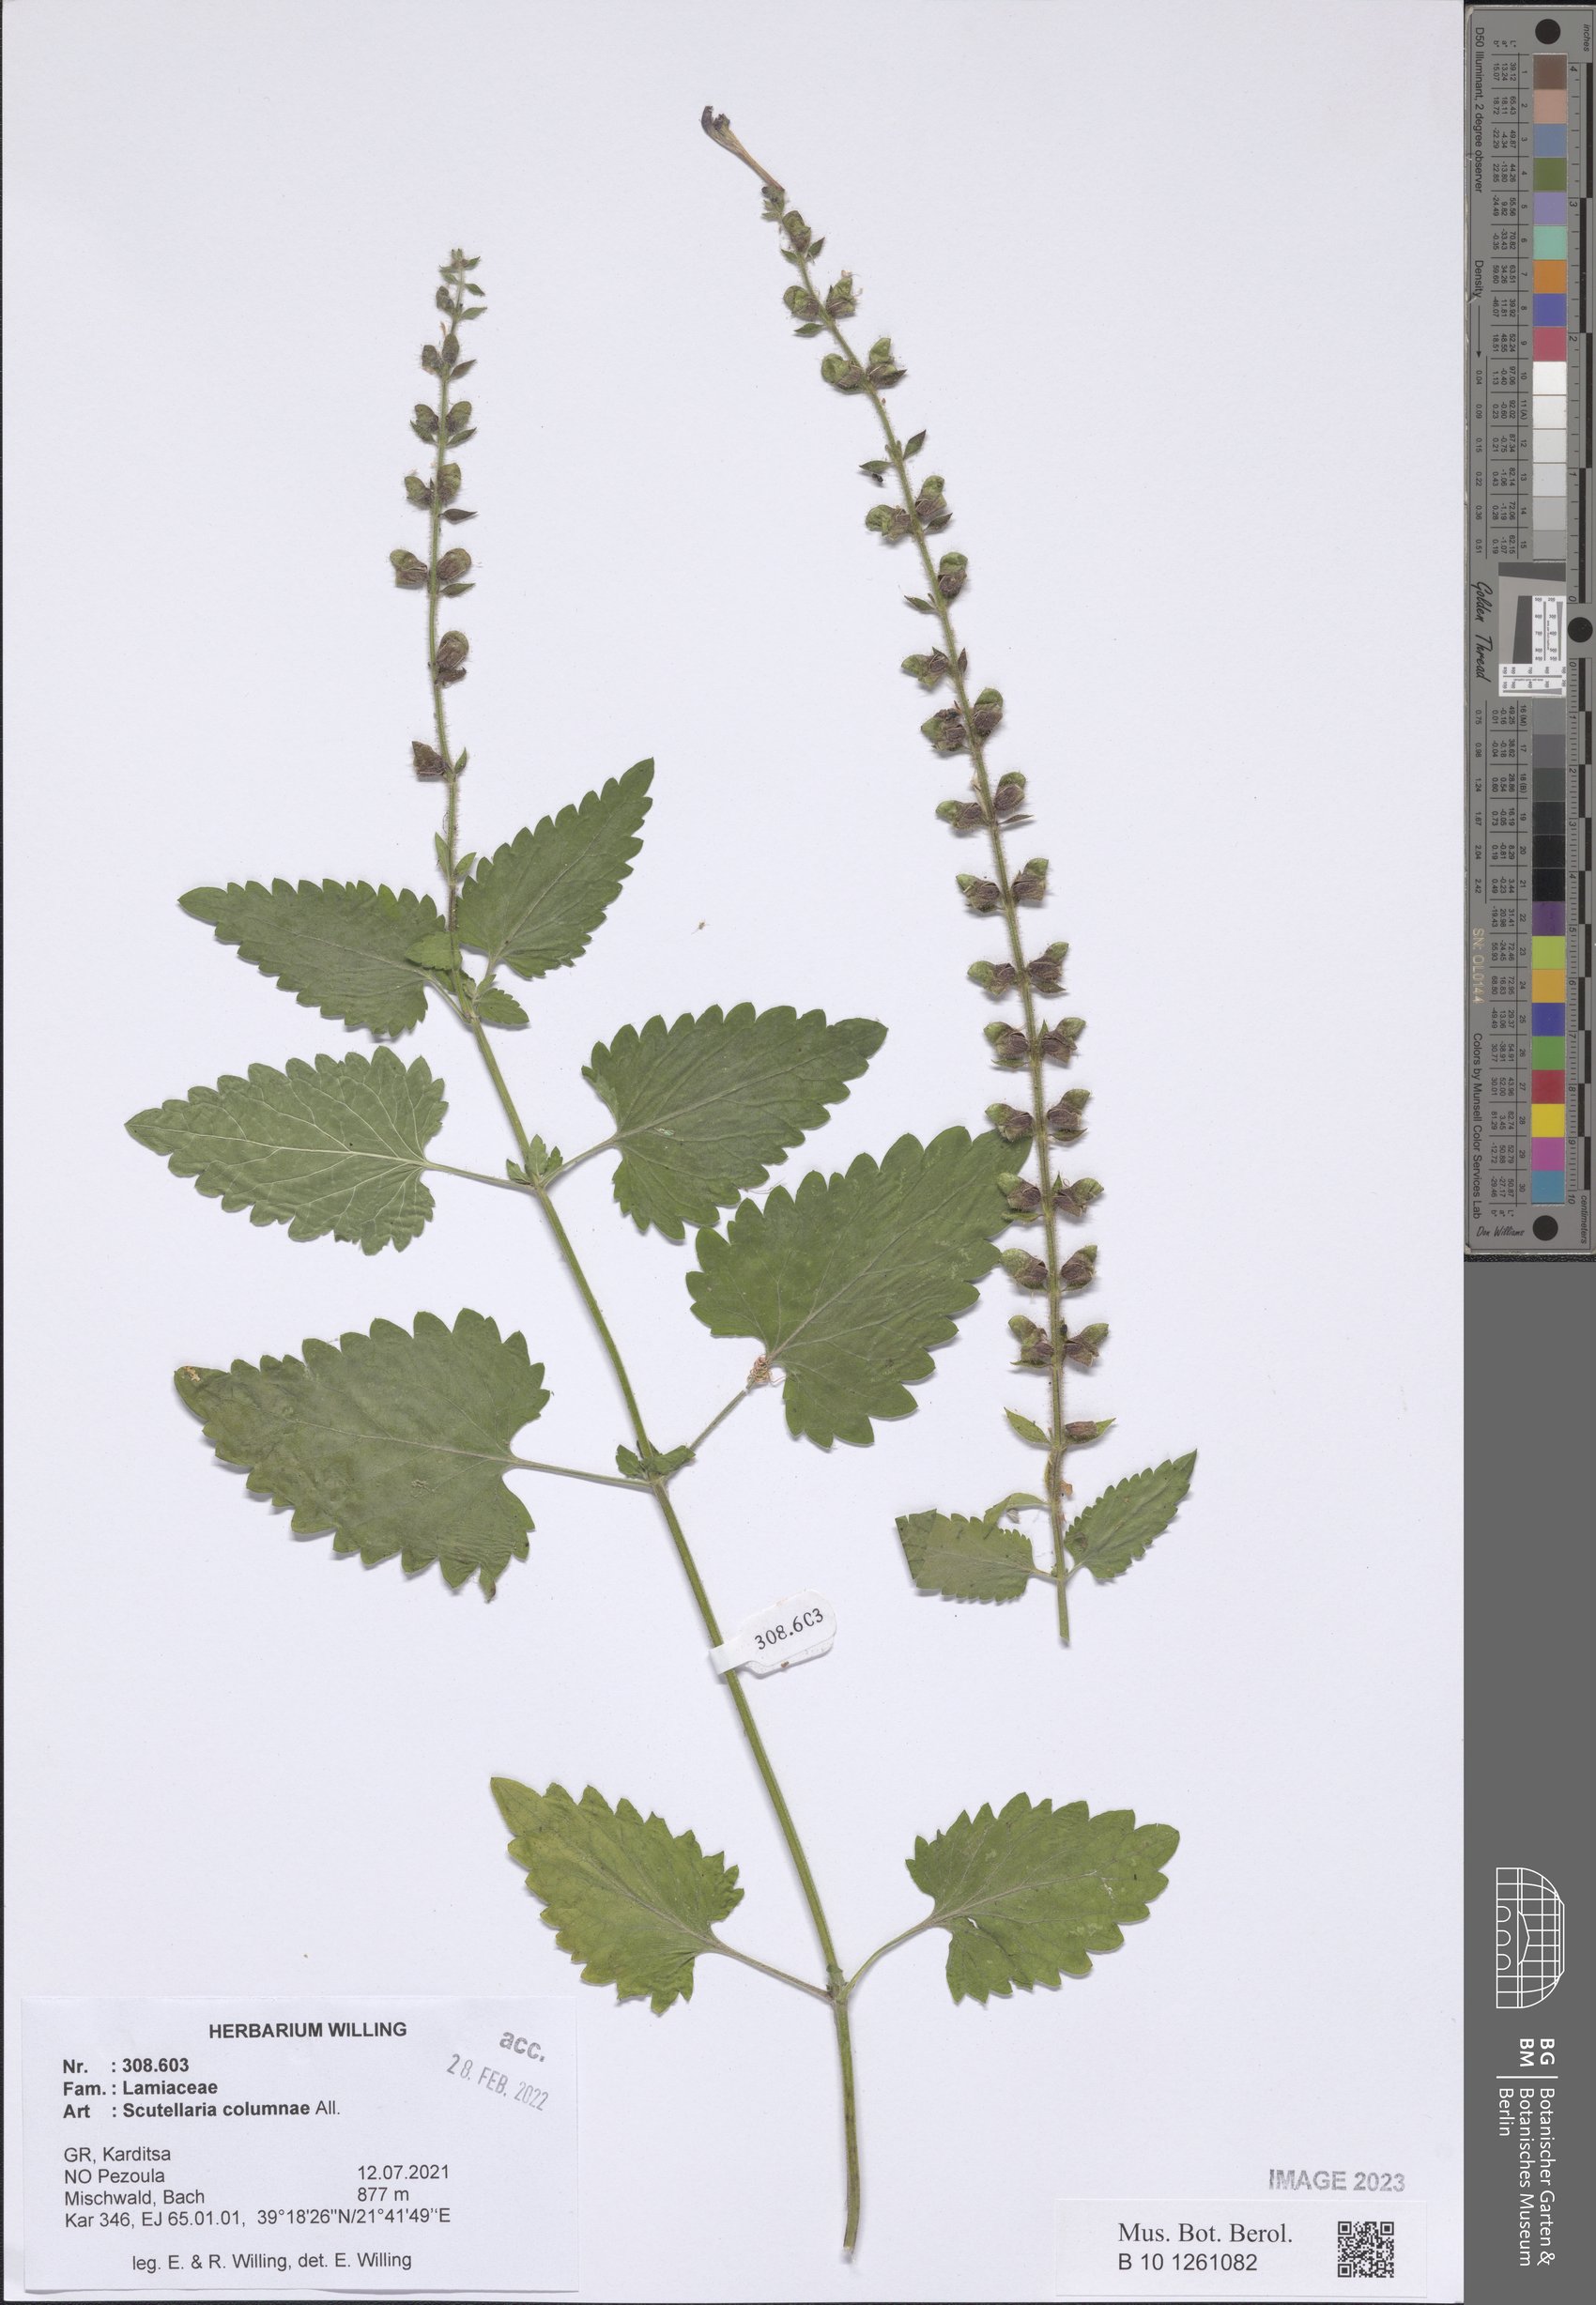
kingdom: Plantae
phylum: Tracheophyta
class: Magnoliopsida
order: Lamiales
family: Lamiaceae
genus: Scutellaria
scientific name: Scutellaria columnae
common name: Large skullcap
